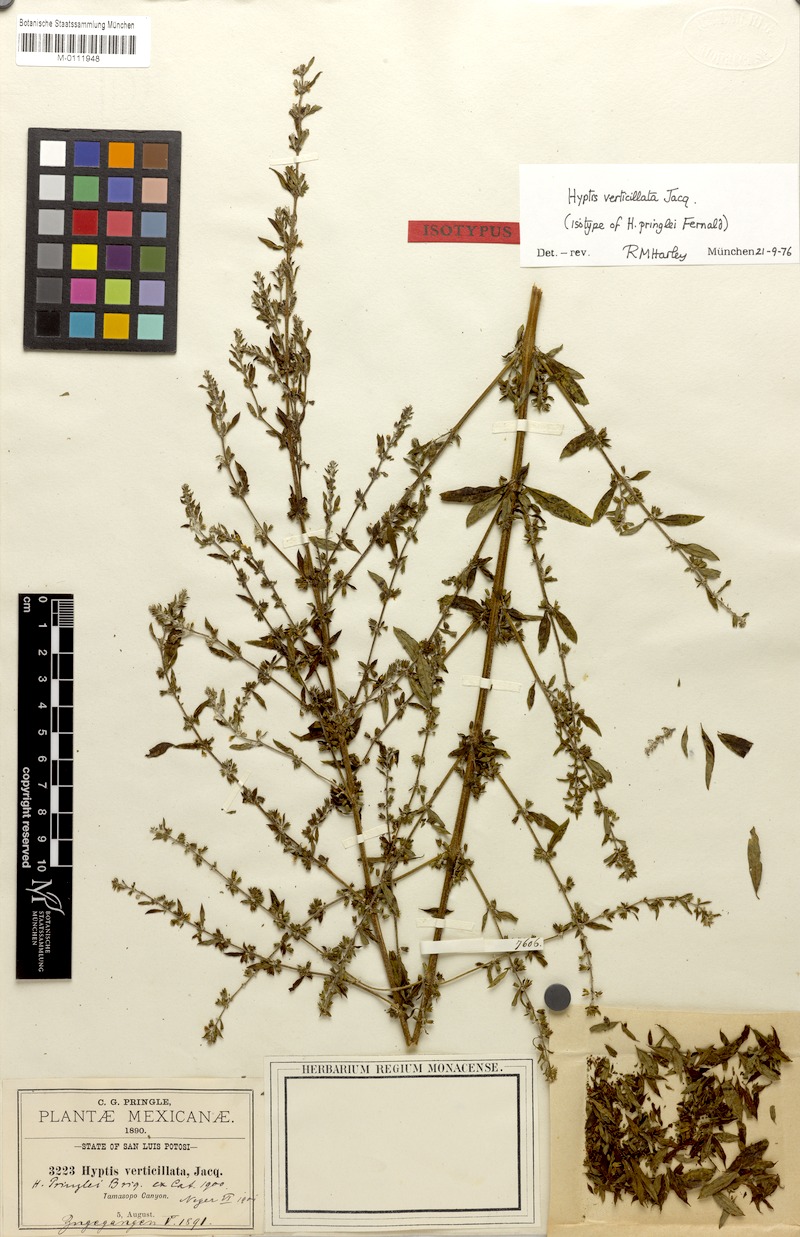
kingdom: Plantae
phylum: Tracheophyta
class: Magnoliopsida
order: Lamiales
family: Lamiaceae
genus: Condea
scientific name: Condea verticillata
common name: John charles
